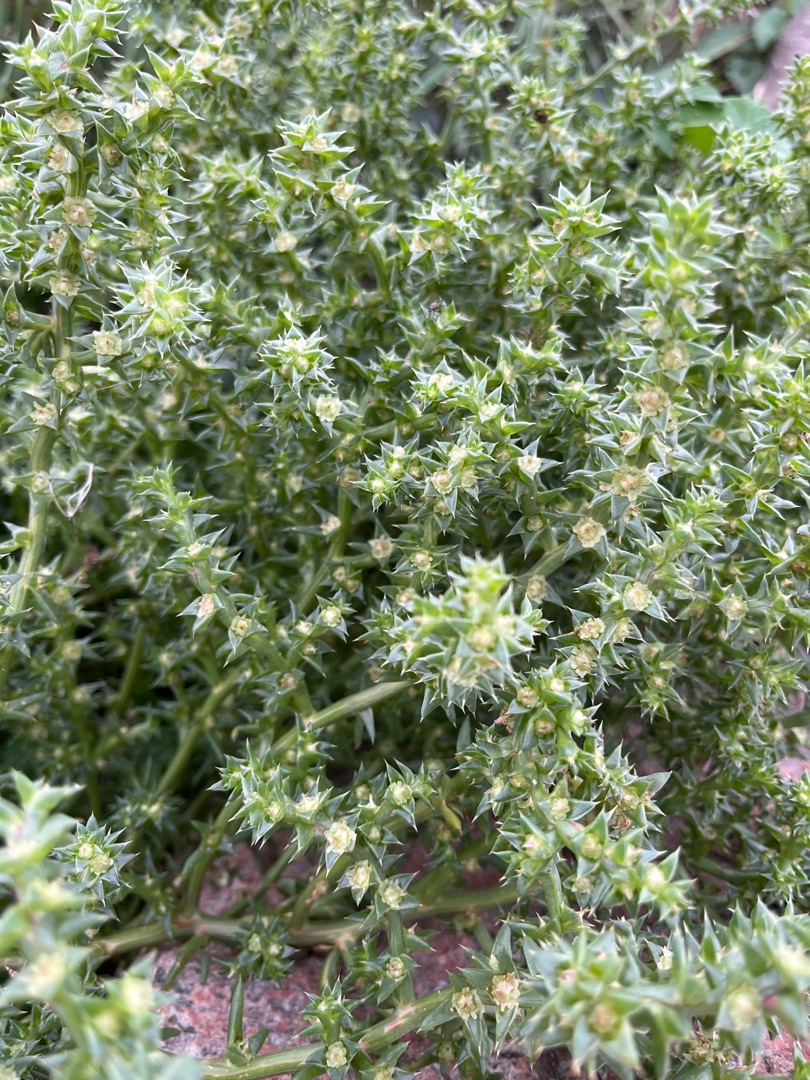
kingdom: Plantae
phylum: Tracheophyta
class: Magnoliopsida
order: Caryophyllales
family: Amaranthaceae
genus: Salsola
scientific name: Salsola kali
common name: Sodaurt
